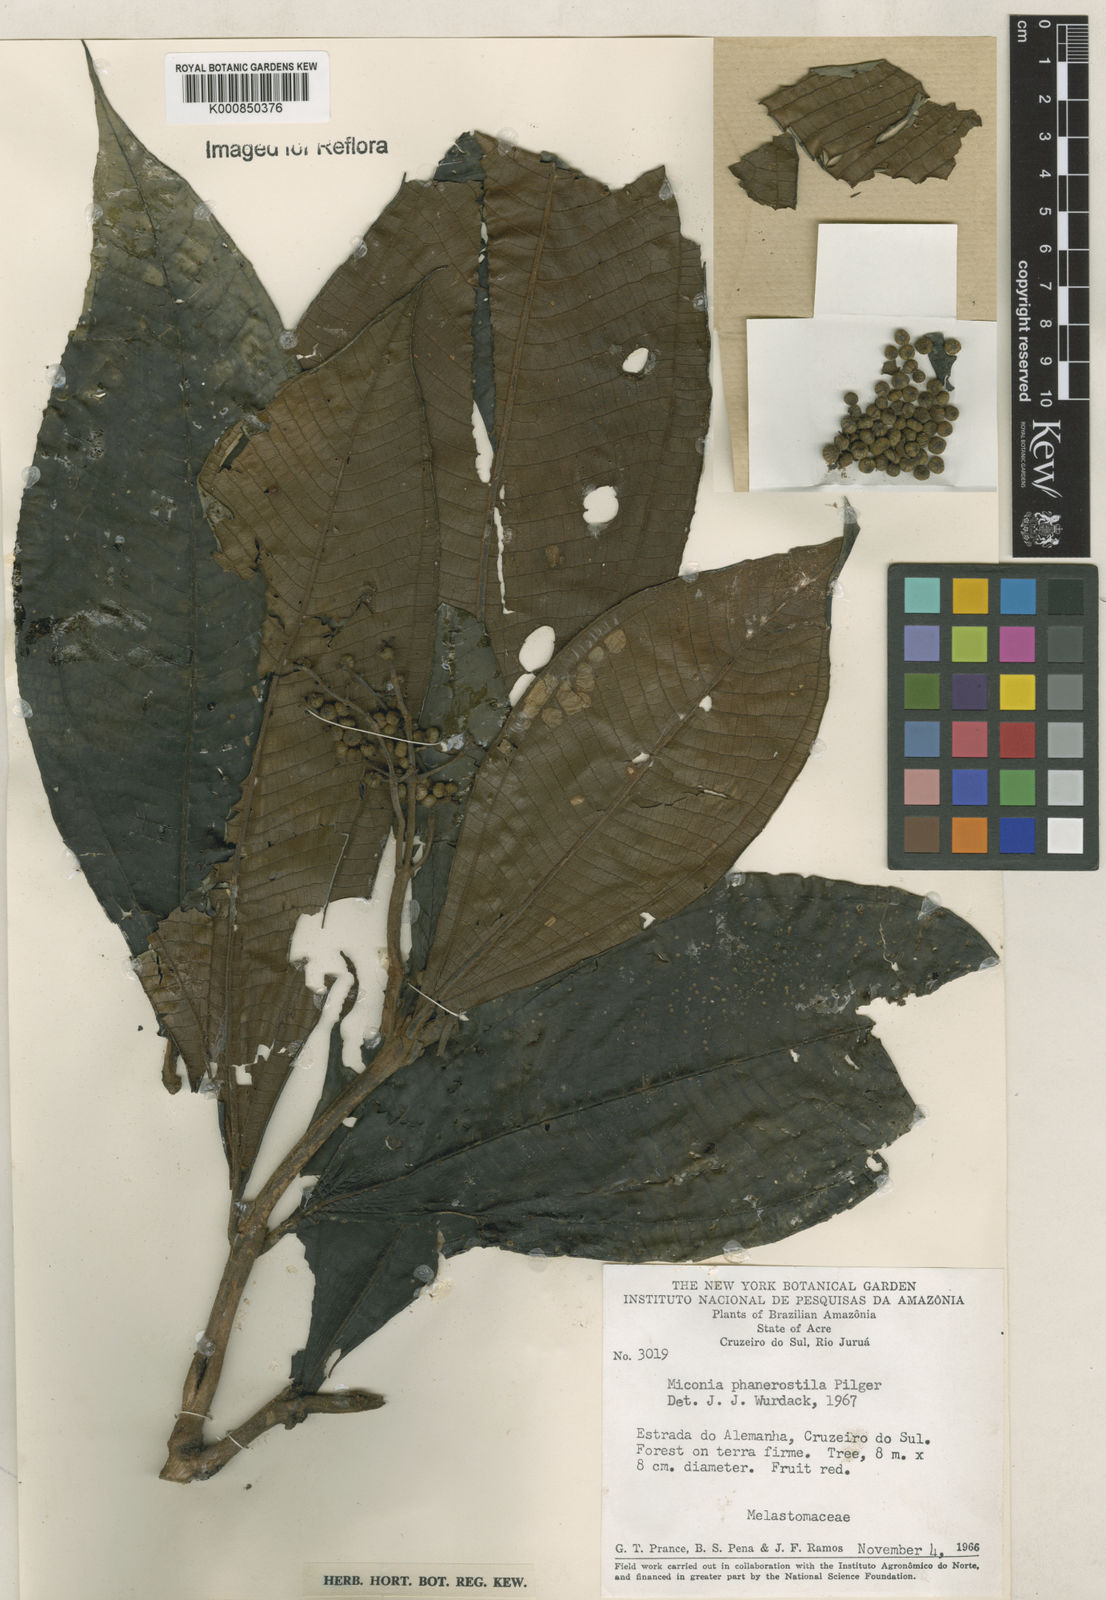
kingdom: Plantae
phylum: Tracheophyta
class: Magnoliopsida
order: Myrtales
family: Melastomataceae
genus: Miconia
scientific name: Miconia phanerostila
